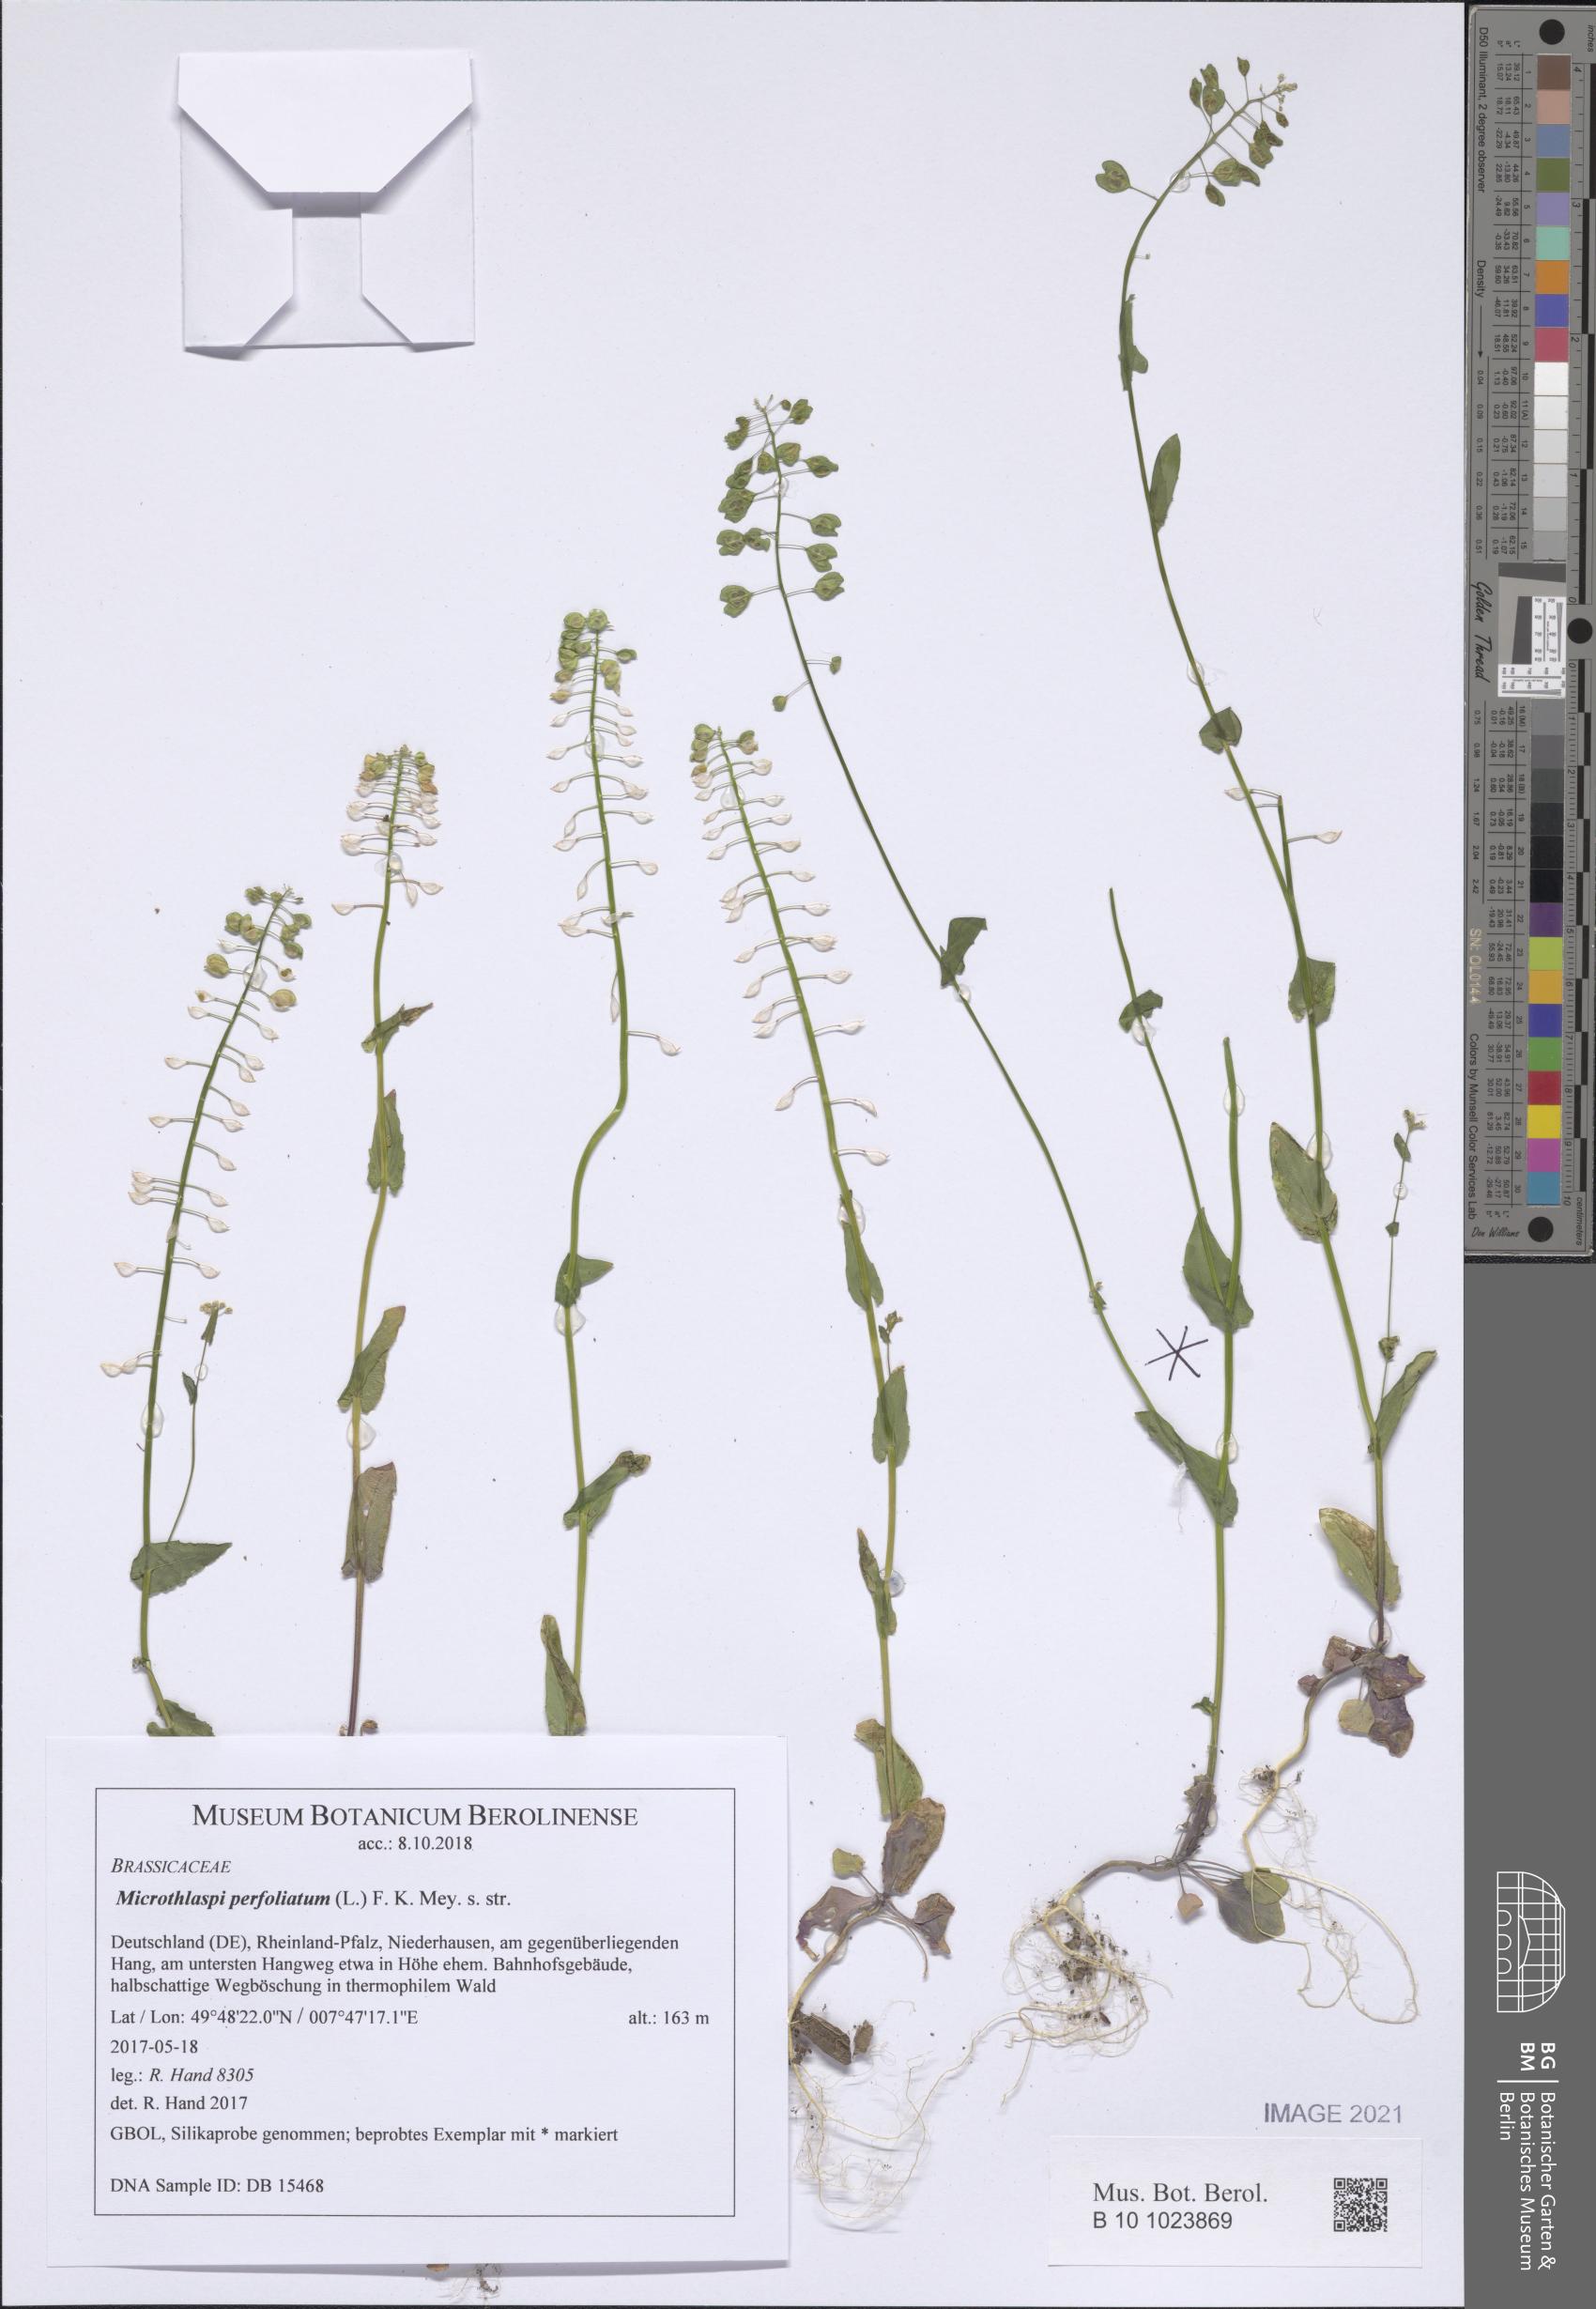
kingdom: Plantae
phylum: Tracheophyta
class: Magnoliopsida
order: Brassicales
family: Brassicaceae
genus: Noccaea
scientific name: Noccaea perfoliata
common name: Perfoliate pennycress
